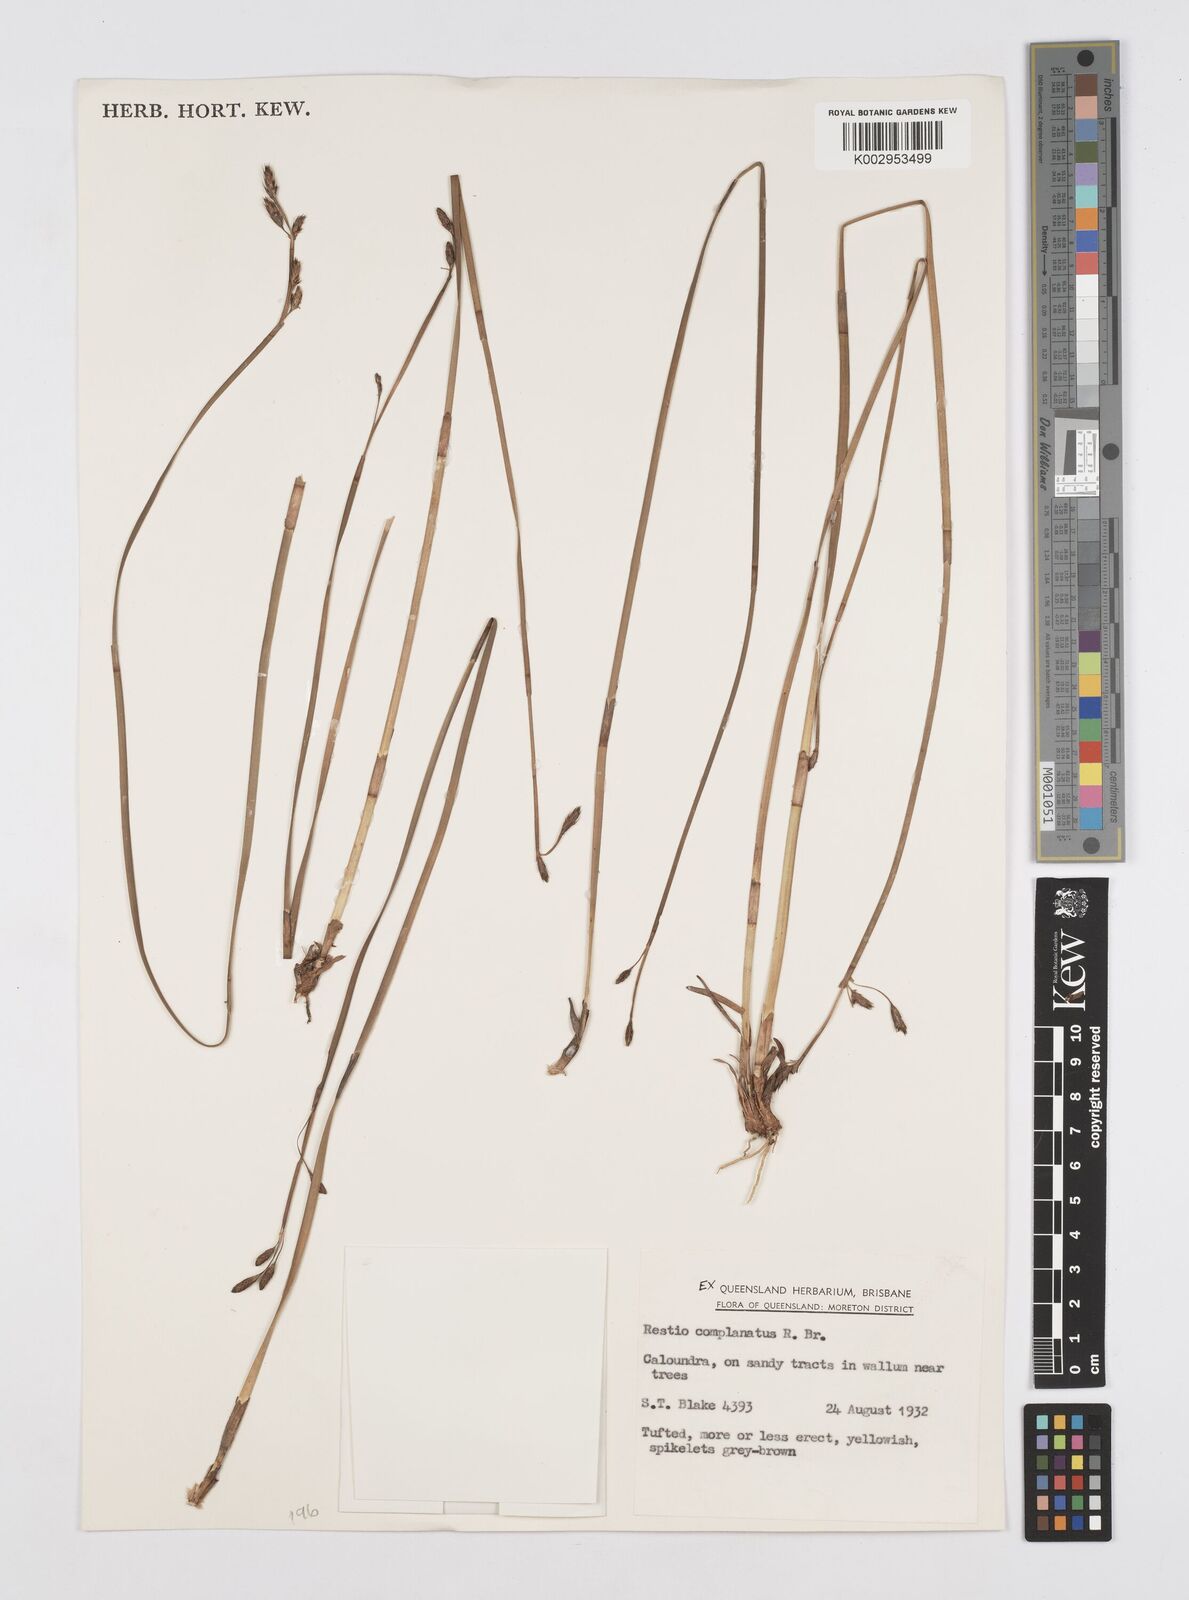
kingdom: Plantae
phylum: Tracheophyta
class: Liliopsida
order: Poales
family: Restionaceae
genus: Eurychorda
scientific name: Eurychorda complanata
